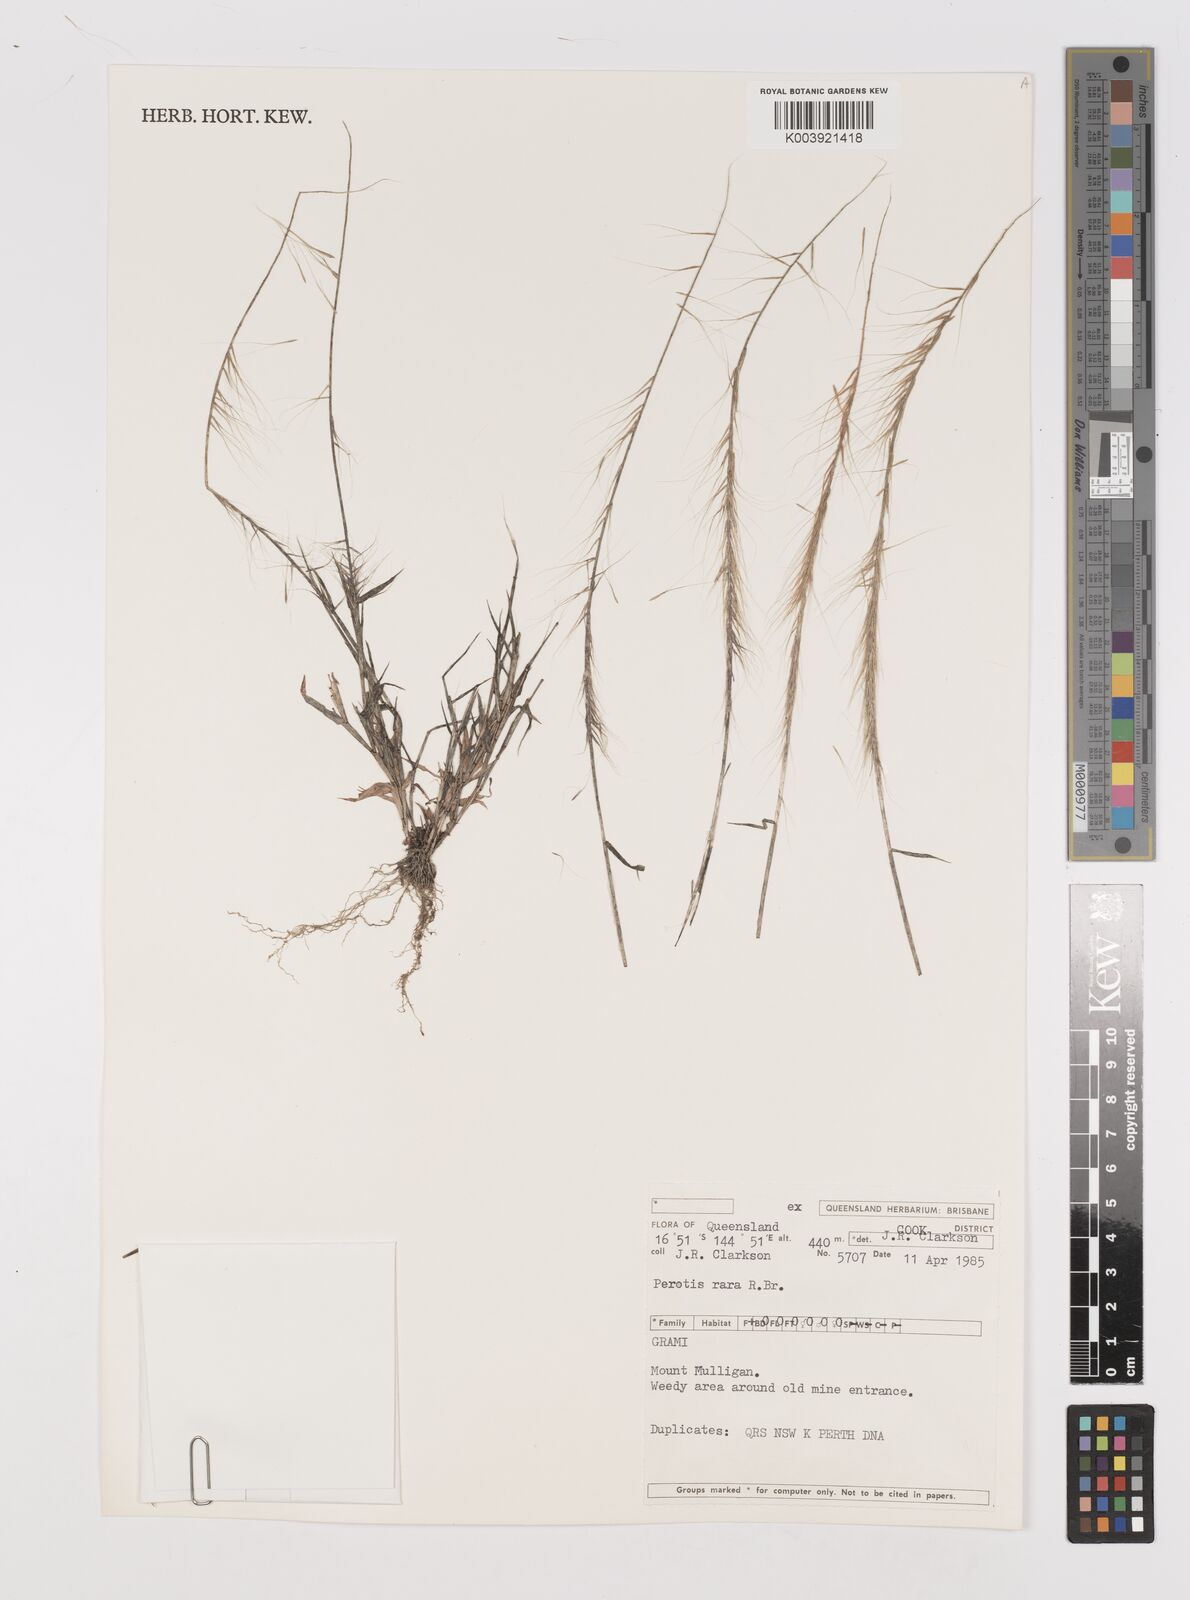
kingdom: Plantae
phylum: Tracheophyta
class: Liliopsida
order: Poales
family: Poaceae
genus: Perotis
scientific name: Perotis rara
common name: Comet grass
